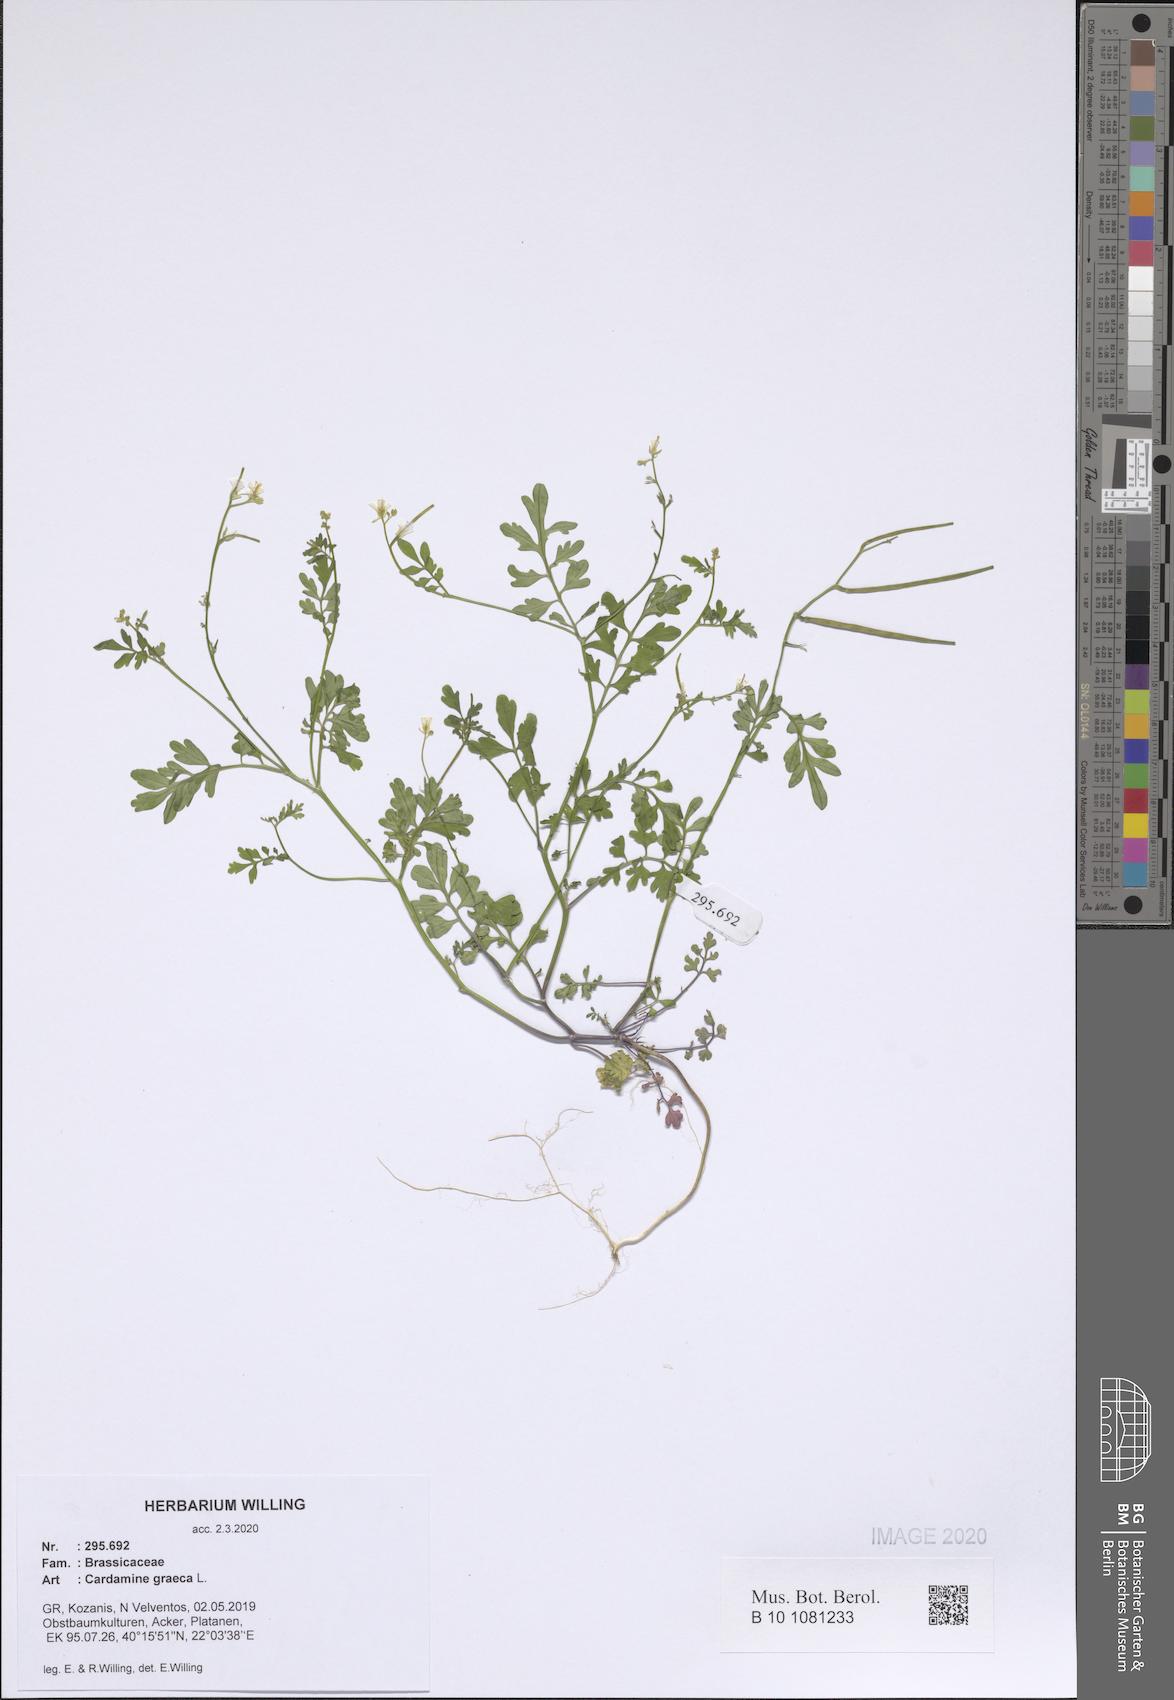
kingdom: Plantae
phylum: Tracheophyta
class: Magnoliopsida
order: Brassicales
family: Brassicaceae
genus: Cardamine
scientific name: Cardamine graeca
